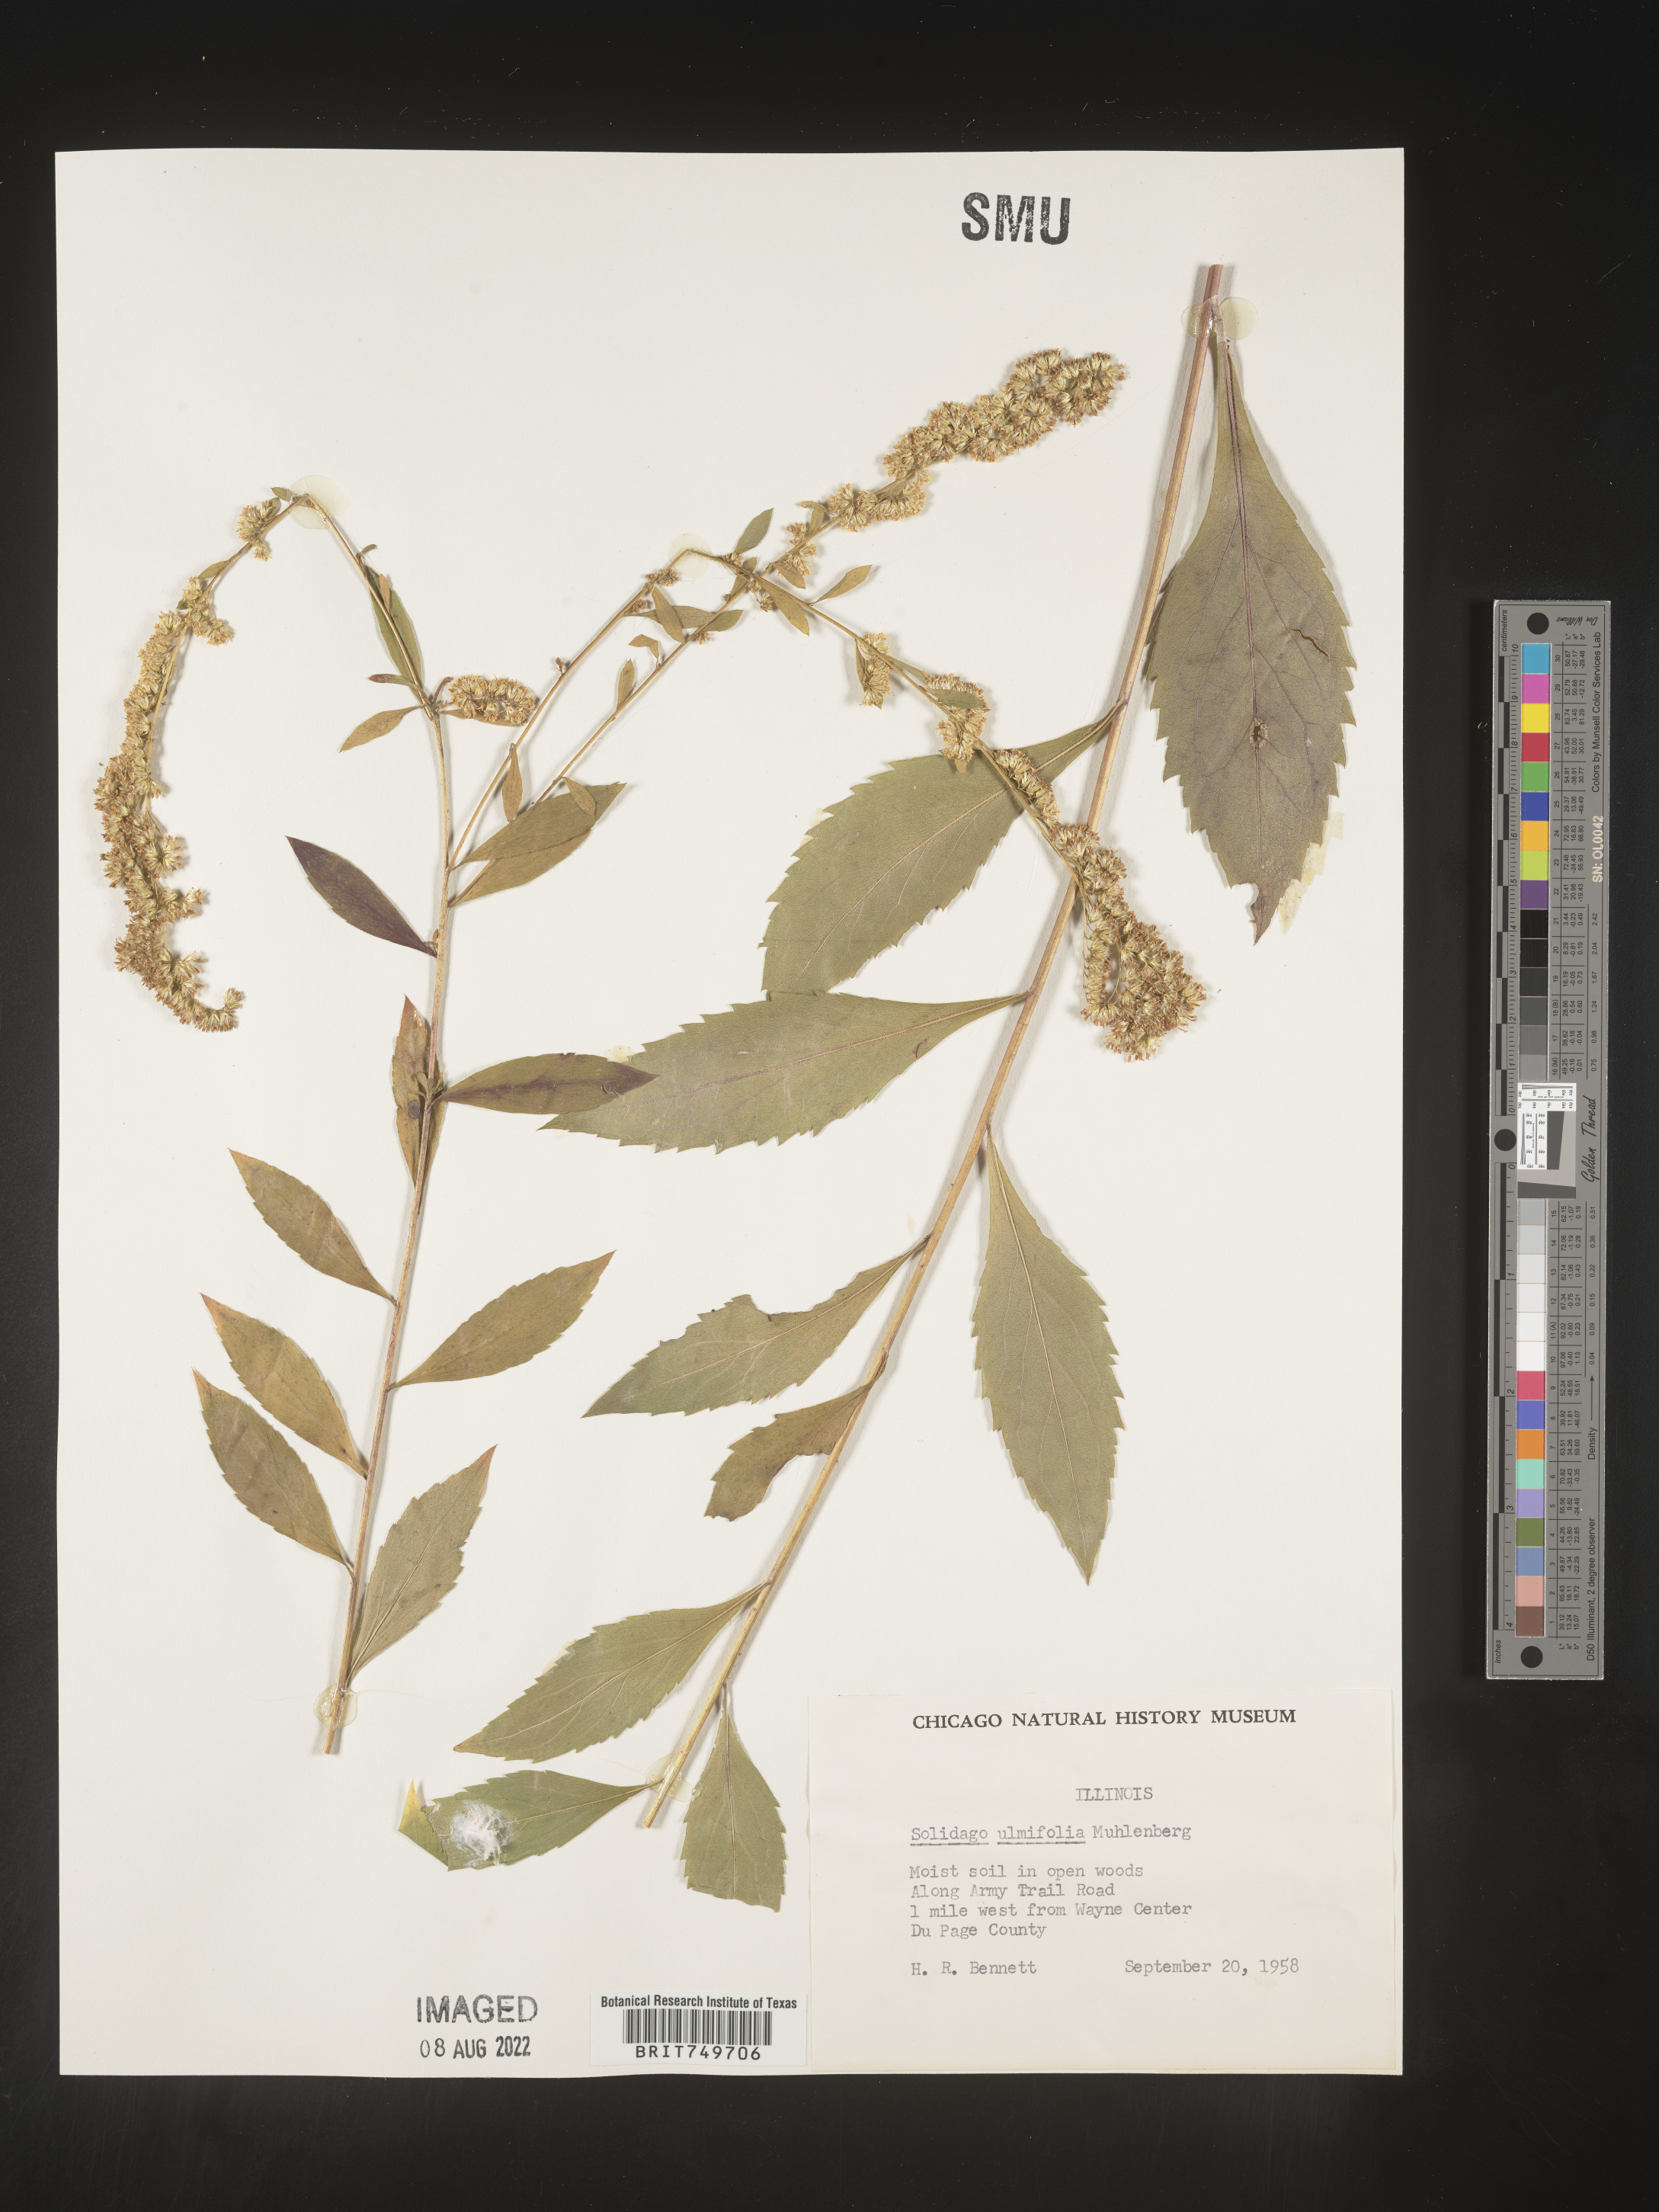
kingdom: Plantae
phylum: Tracheophyta
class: Magnoliopsida
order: Asterales
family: Asteraceae
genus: Solidago
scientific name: Solidago ulmifolia
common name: Elm-leaf goldenrod
